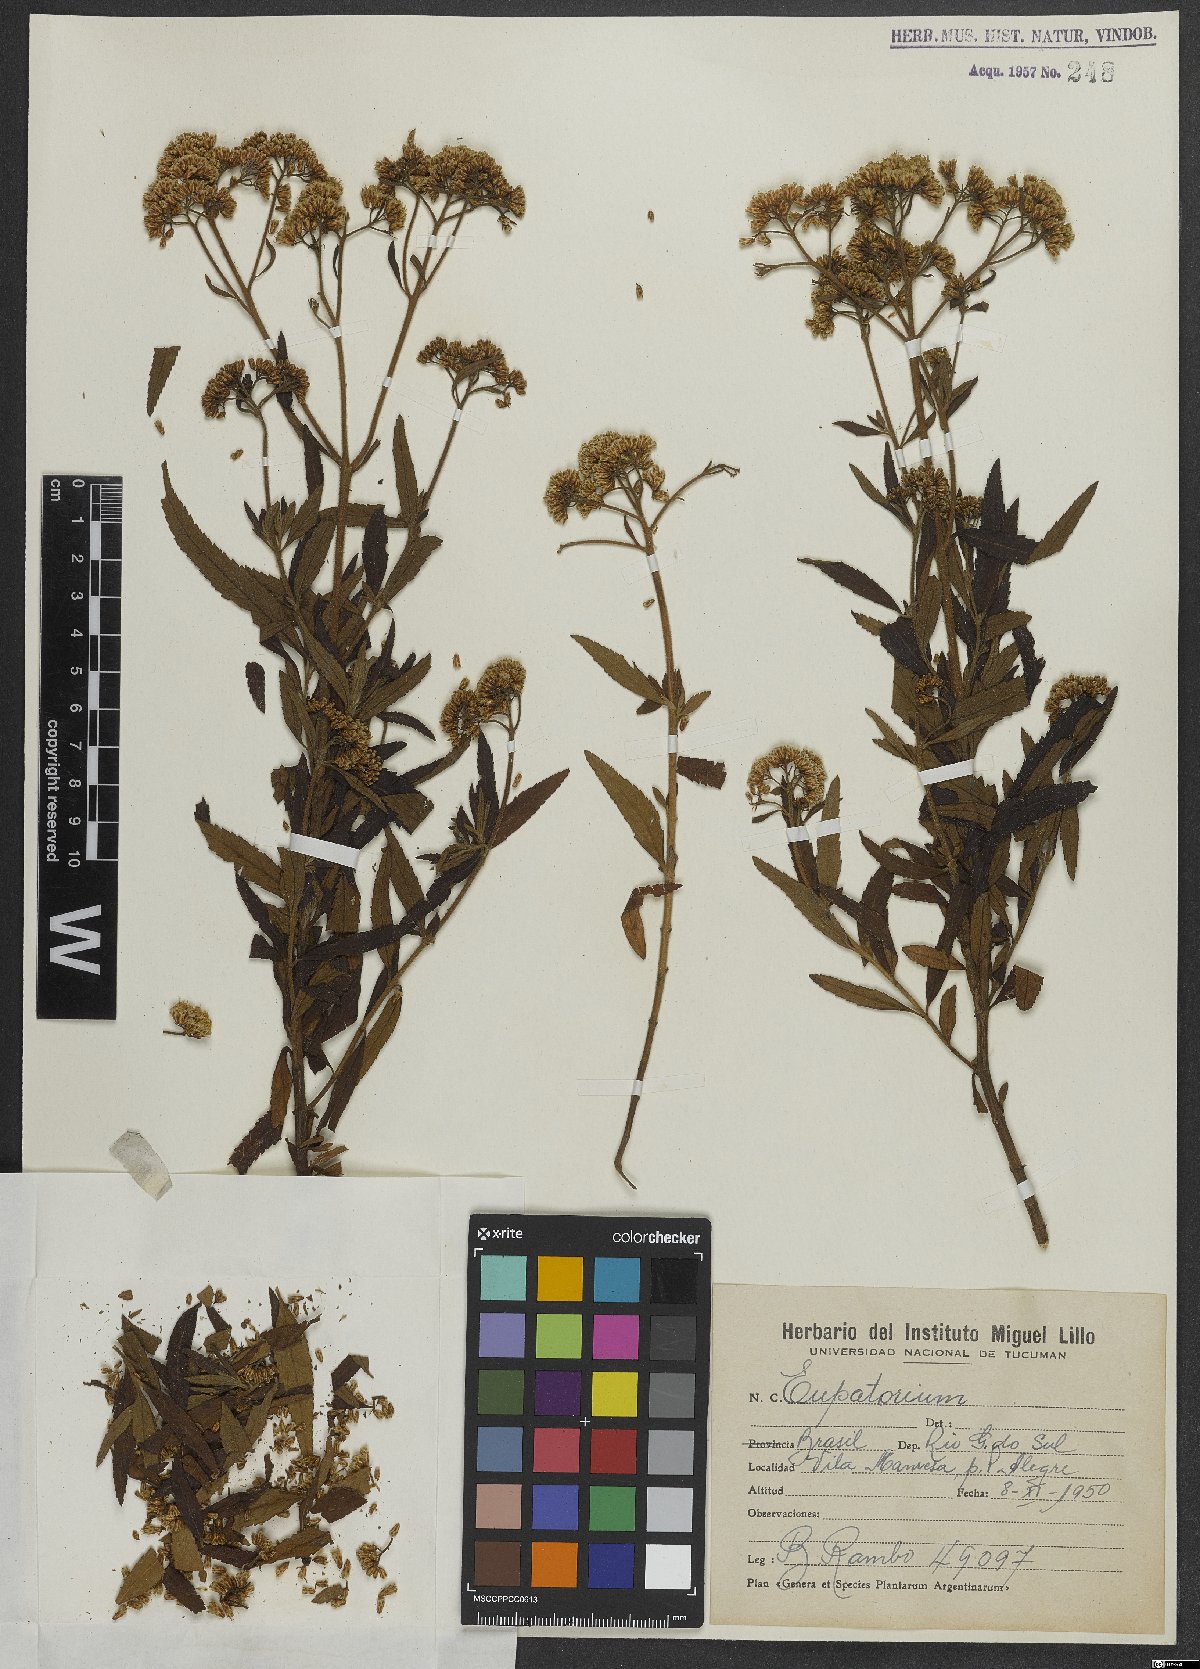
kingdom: Plantae
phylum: Tracheophyta
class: Magnoliopsida
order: Asterales
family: Asteraceae
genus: Eupatorium
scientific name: Eupatorium
